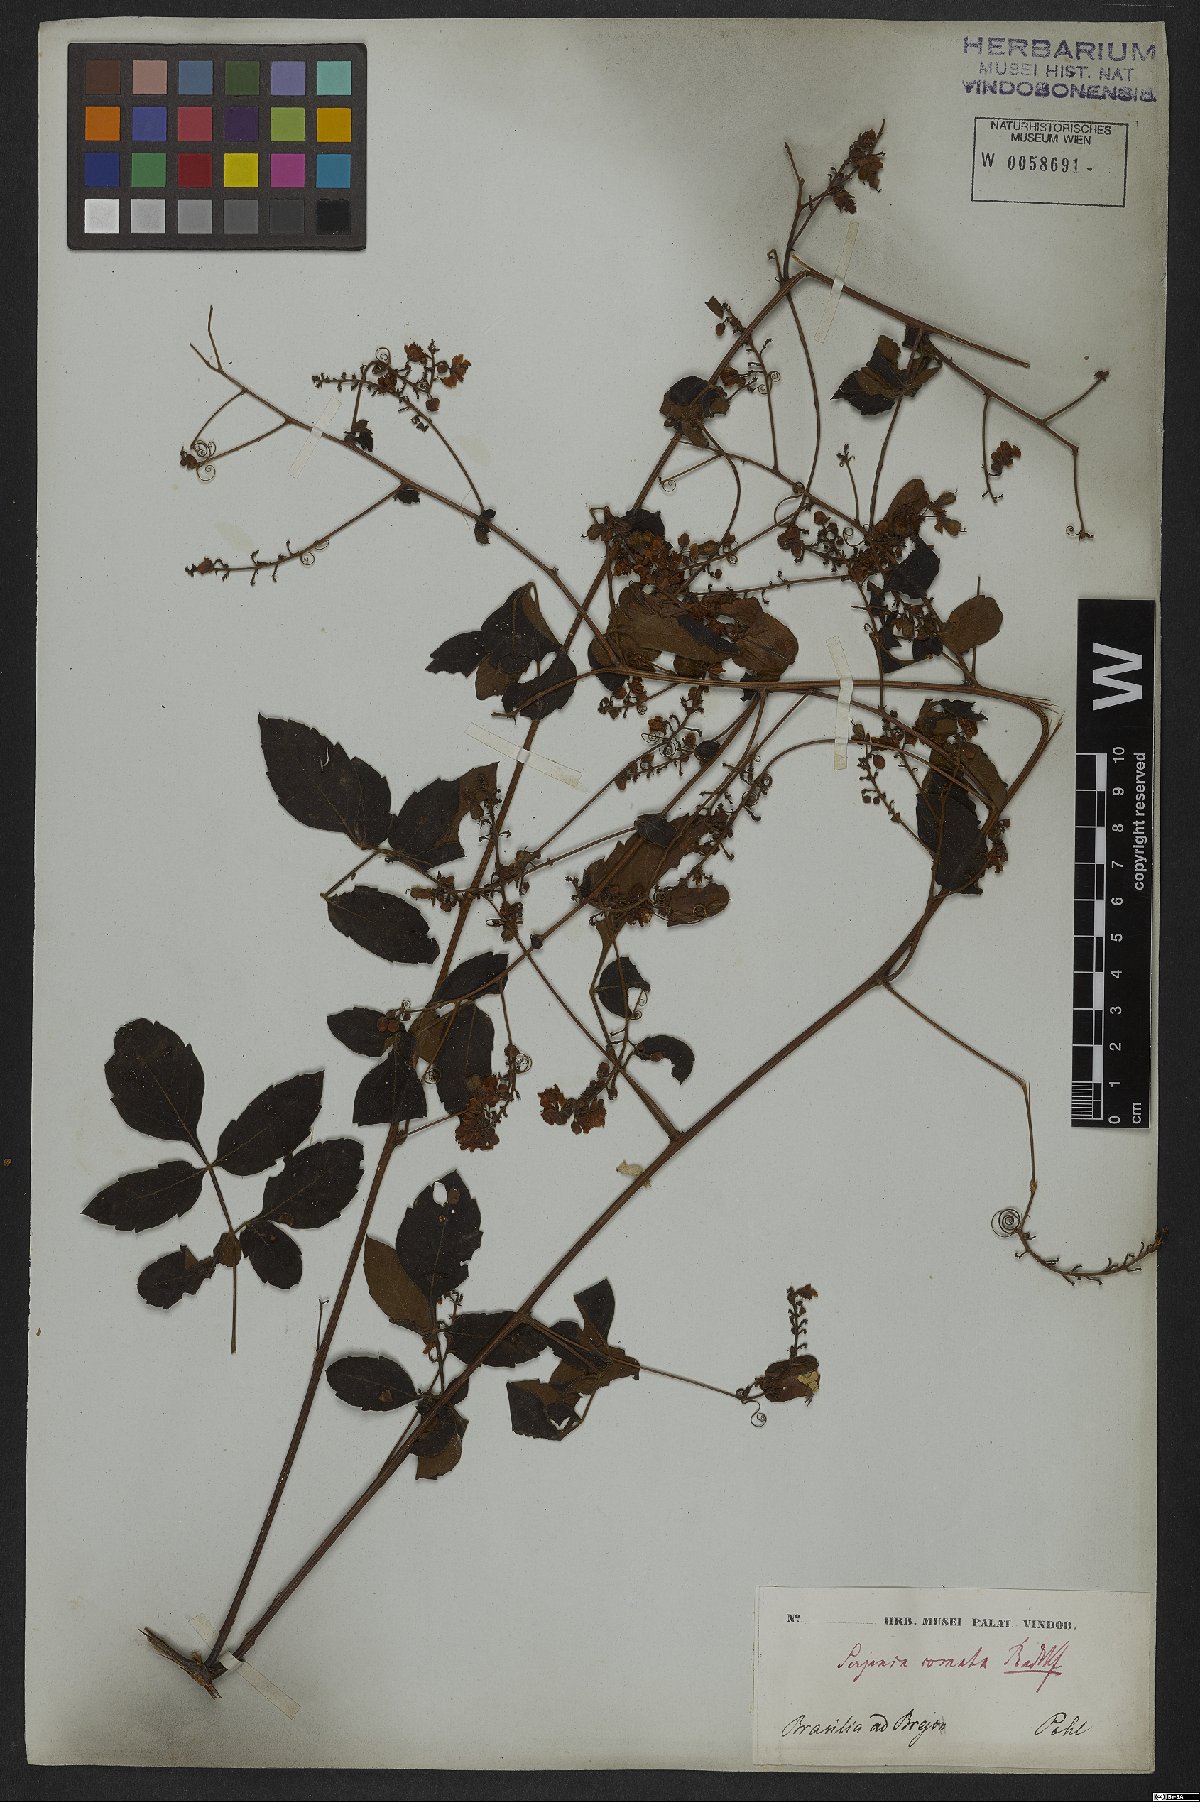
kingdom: Plantae
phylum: Tracheophyta
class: Magnoliopsida
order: Sapindales
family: Sapindaceae
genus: Serjania
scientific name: Serjania comata
